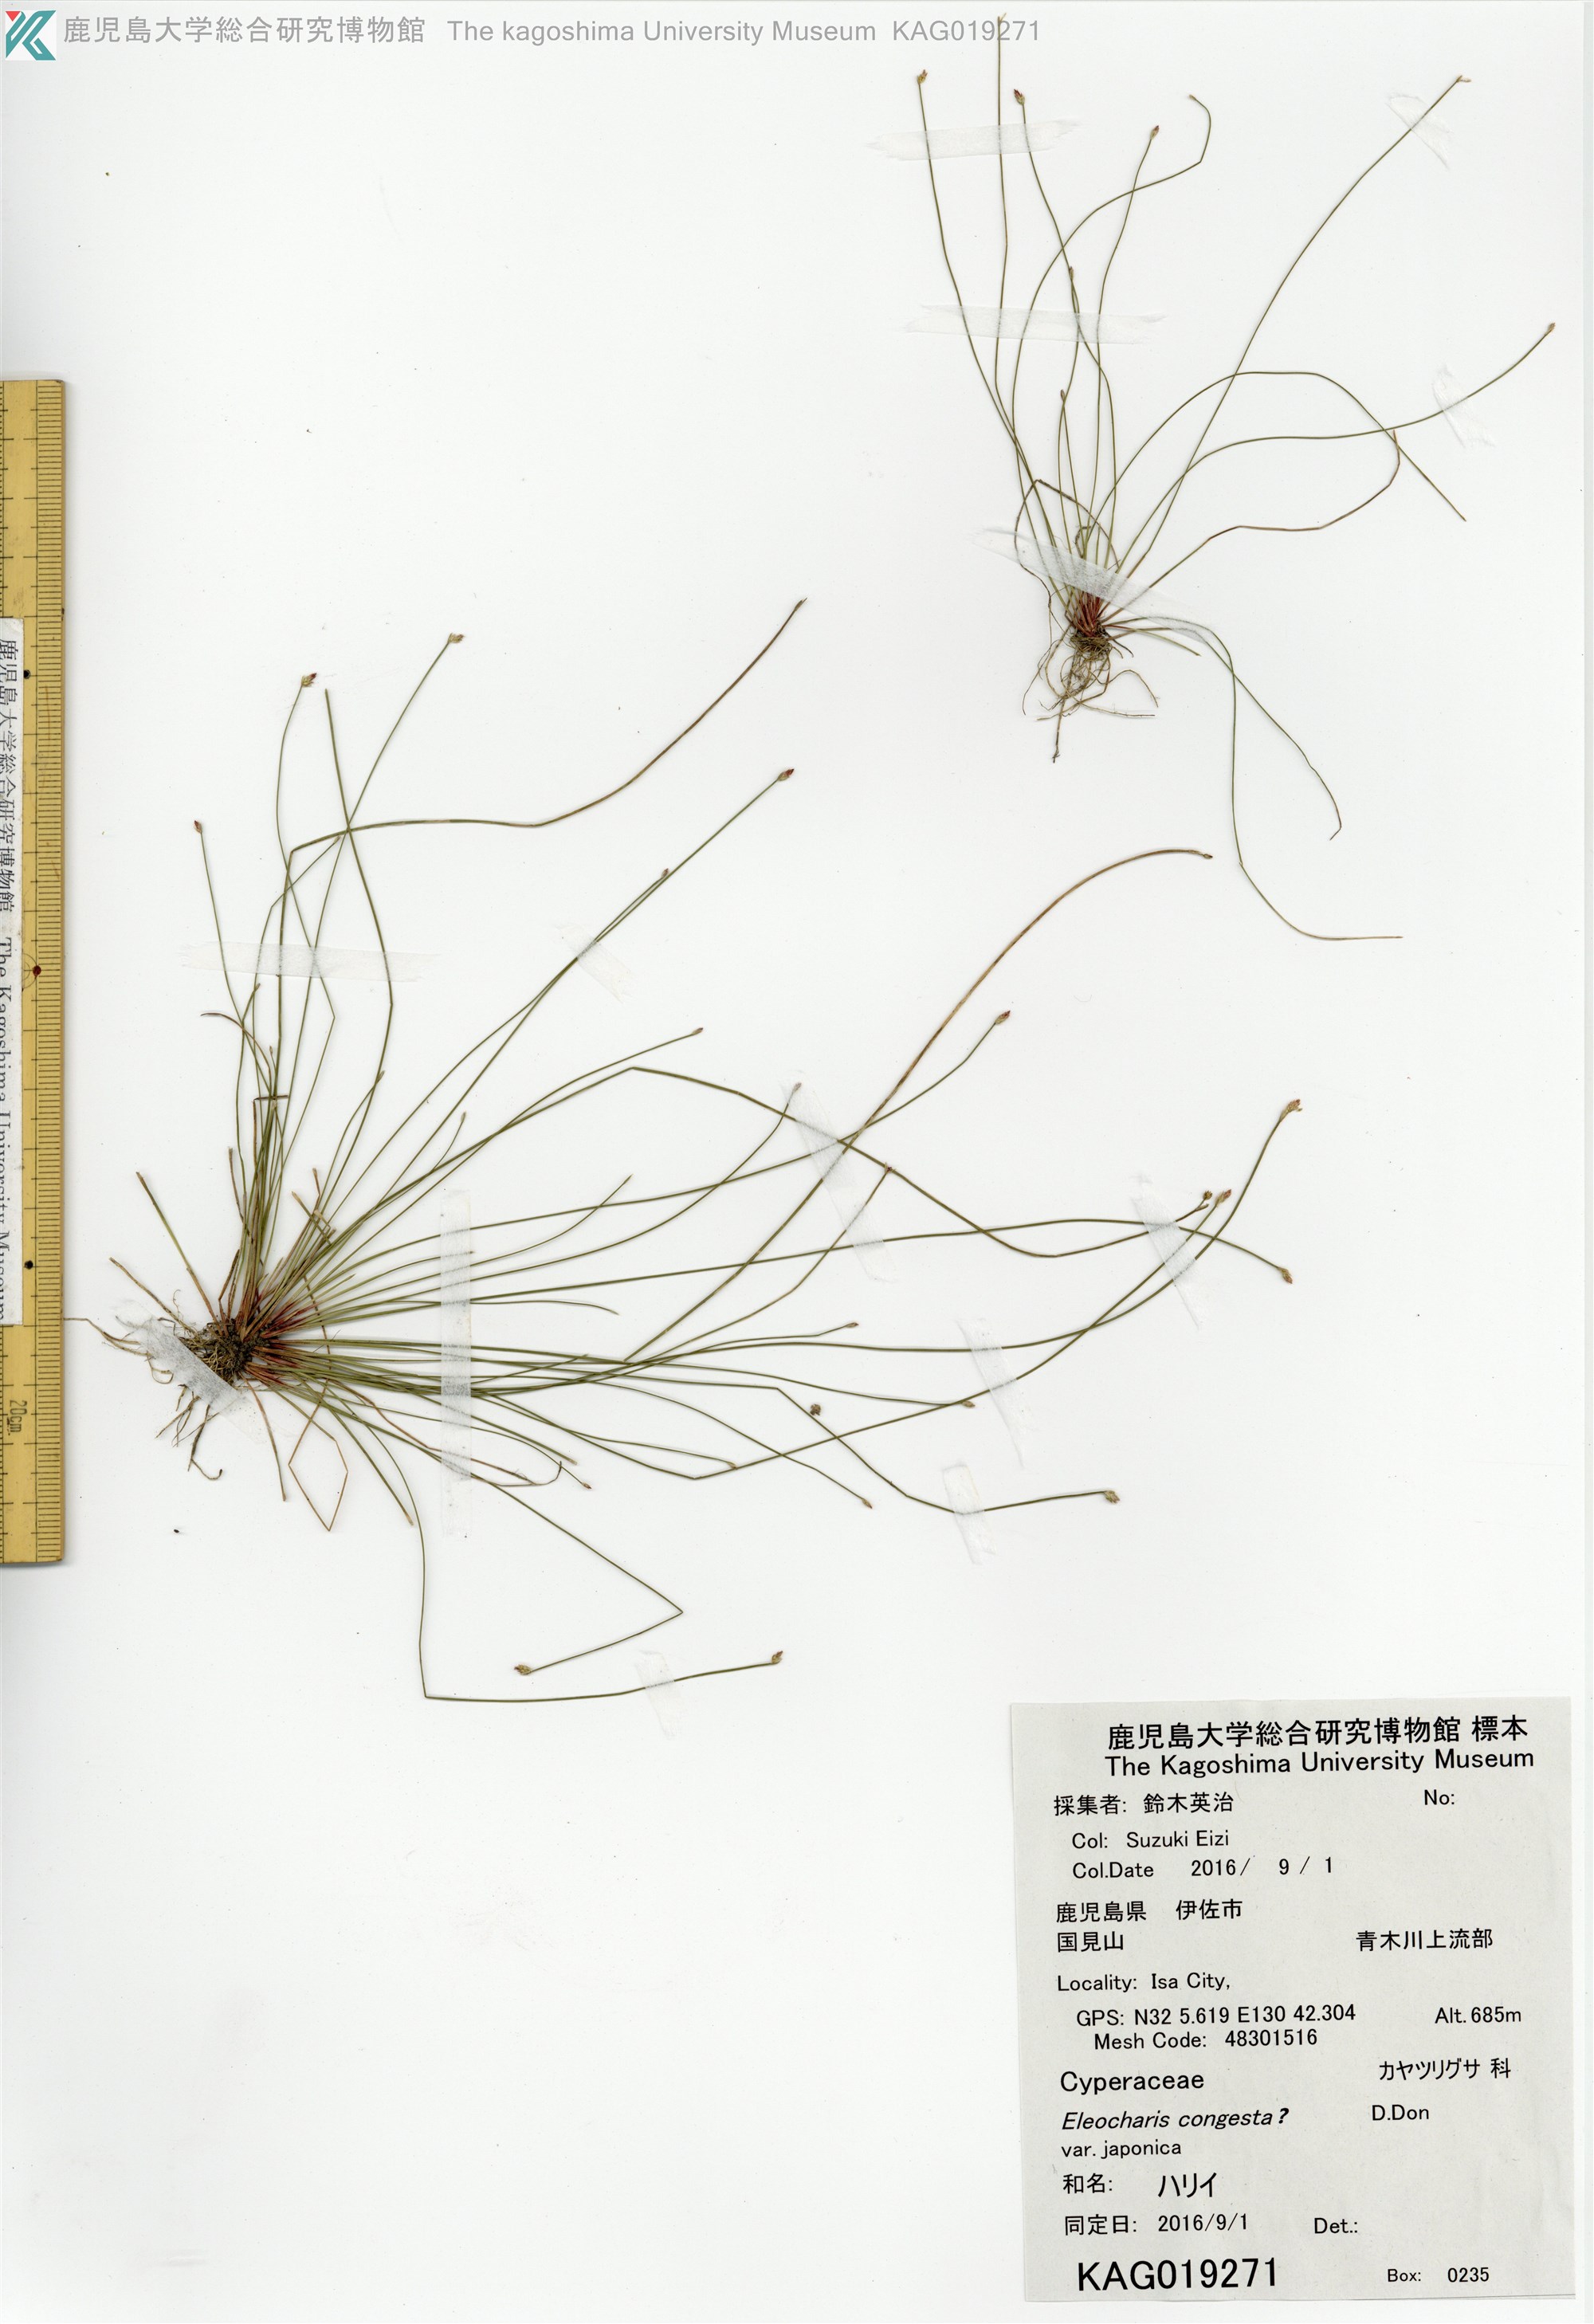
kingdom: Plantae
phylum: Tracheophyta
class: Liliopsida
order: Poales
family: Cyperaceae
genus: Eleocharis
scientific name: Eleocharis
